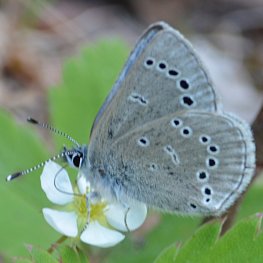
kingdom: Animalia
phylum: Arthropoda
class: Insecta
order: Lepidoptera
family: Lycaenidae
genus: Glaucopsyche
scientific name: Glaucopsyche lygdamus
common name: Silvery Blue
